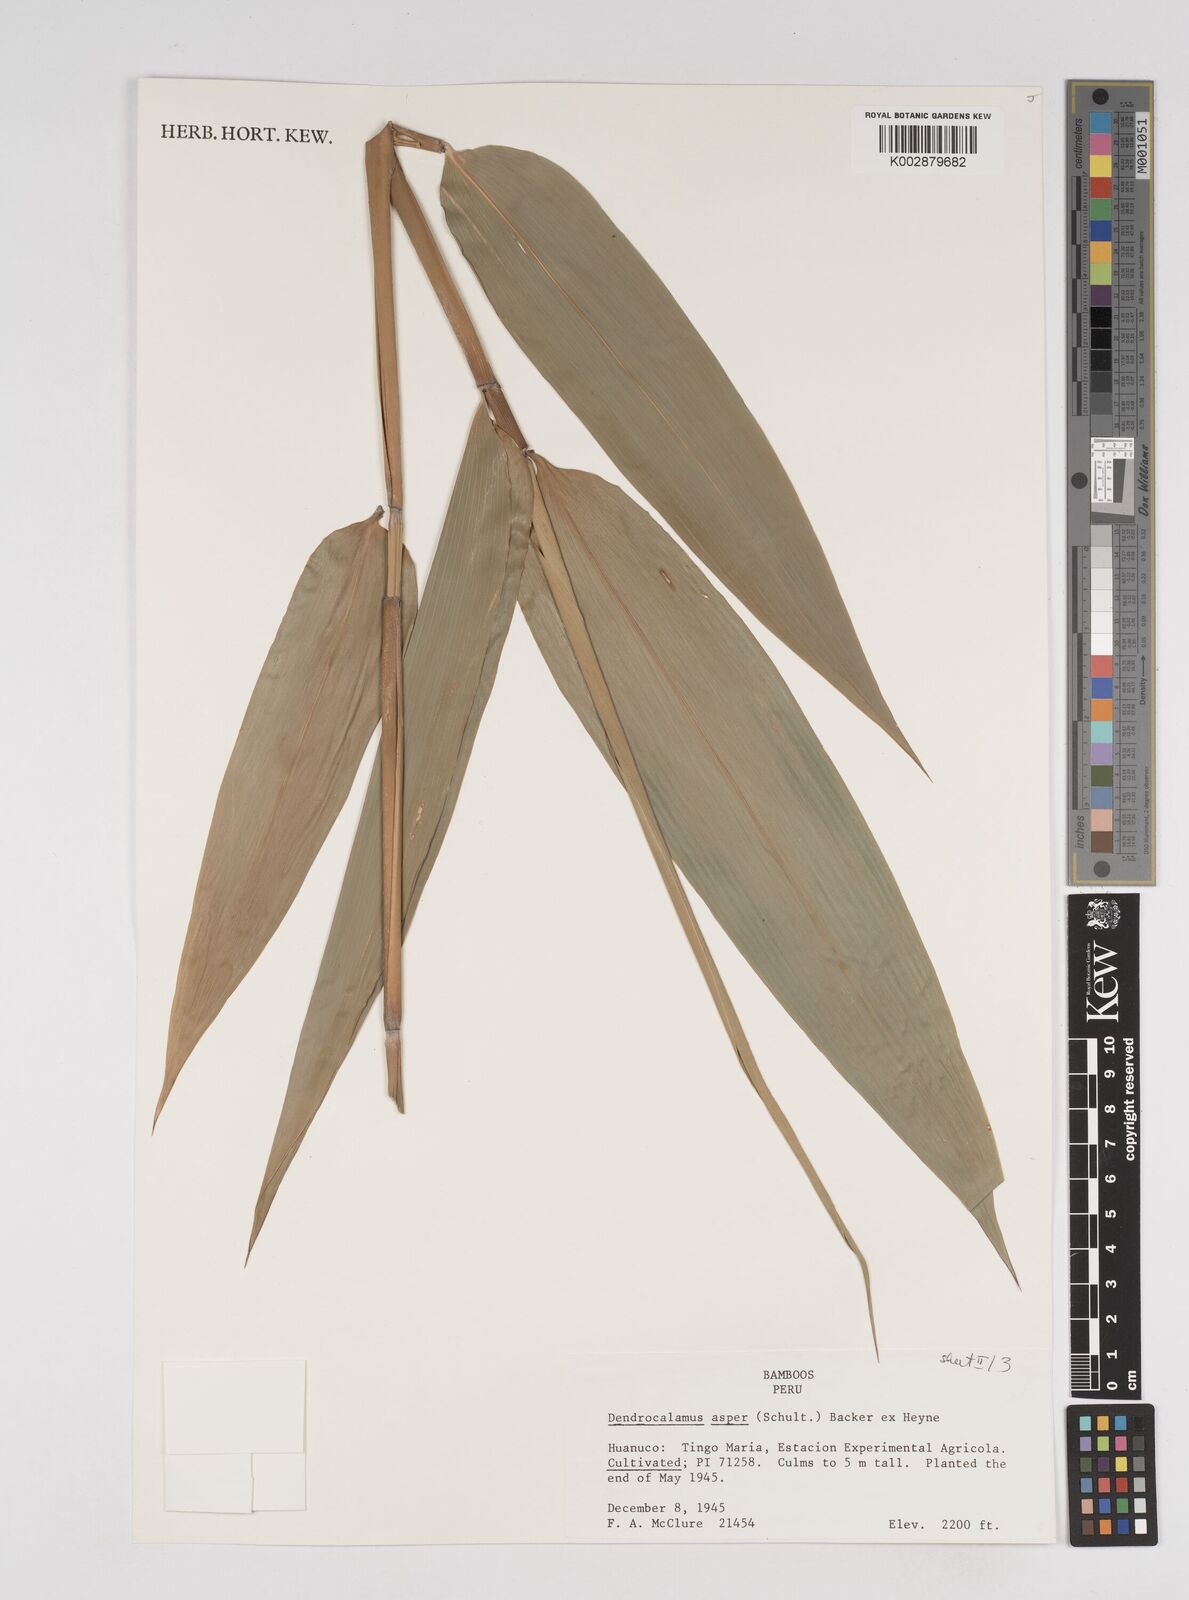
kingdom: Plantae
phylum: Tracheophyta
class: Liliopsida
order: Poales
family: Poaceae
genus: Dendrocalamus
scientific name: Dendrocalamus asper
